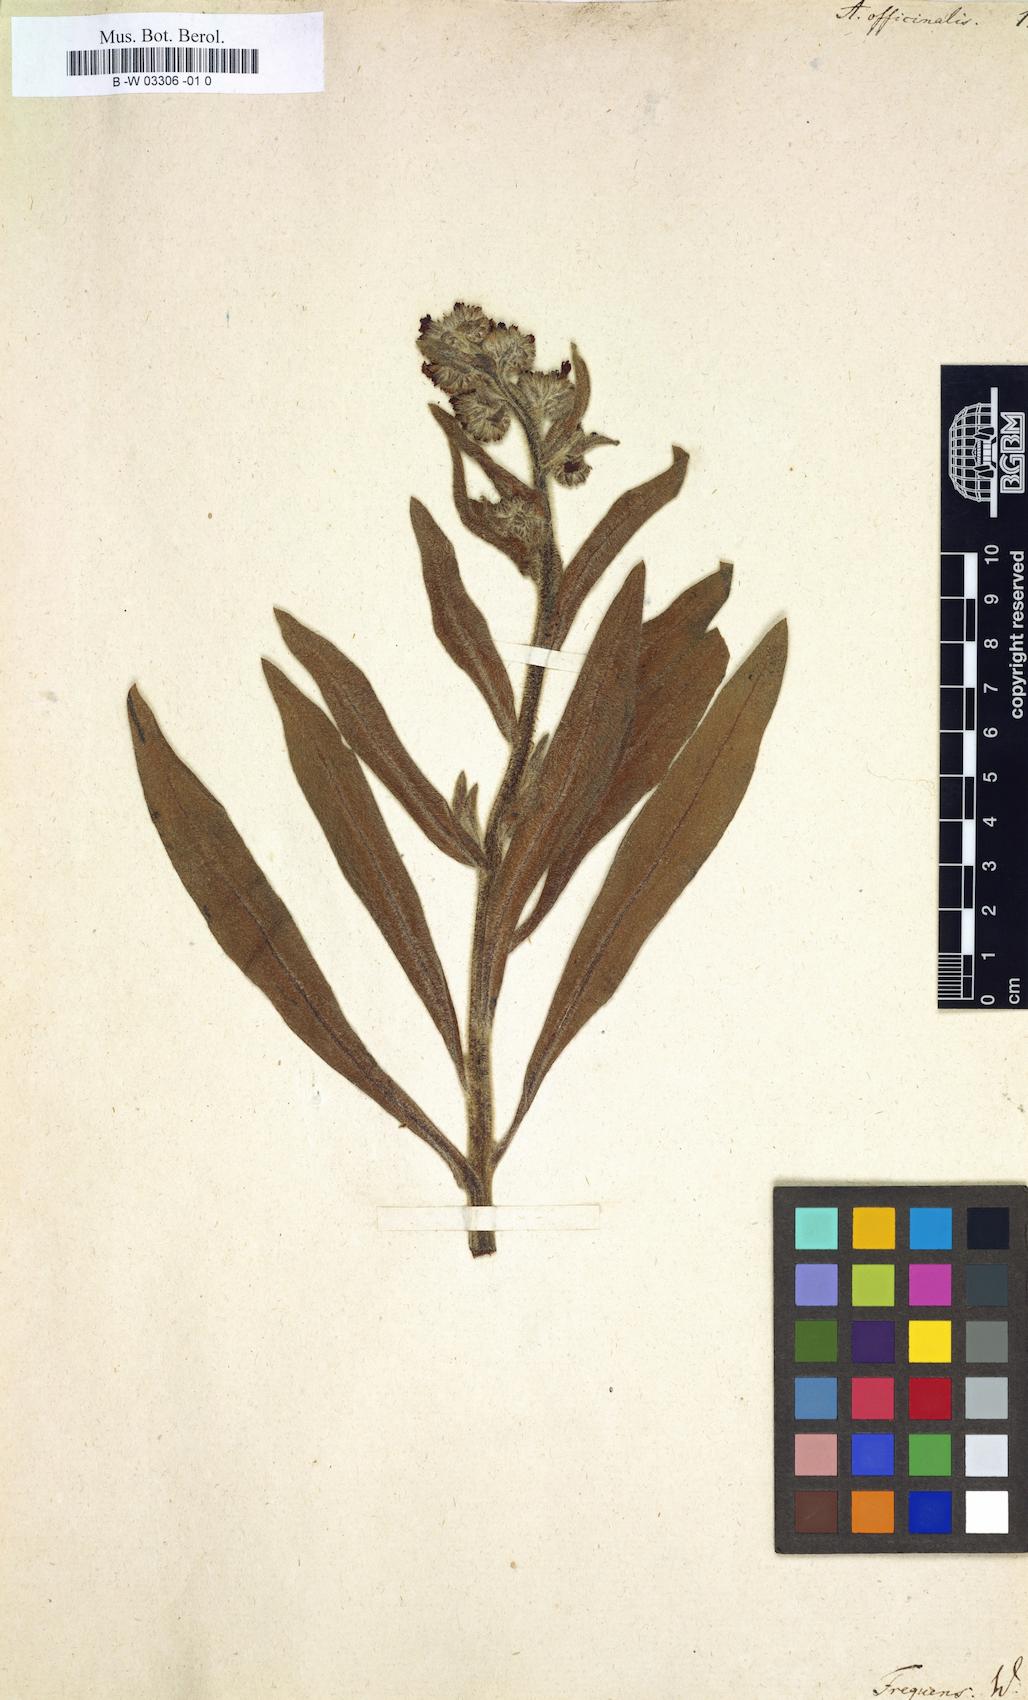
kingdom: Plantae
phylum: Tracheophyta
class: Magnoliopsida
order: Boraginales
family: Boraginaceae
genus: Anchusa
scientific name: Anchusa officinalis
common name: Alkanet
